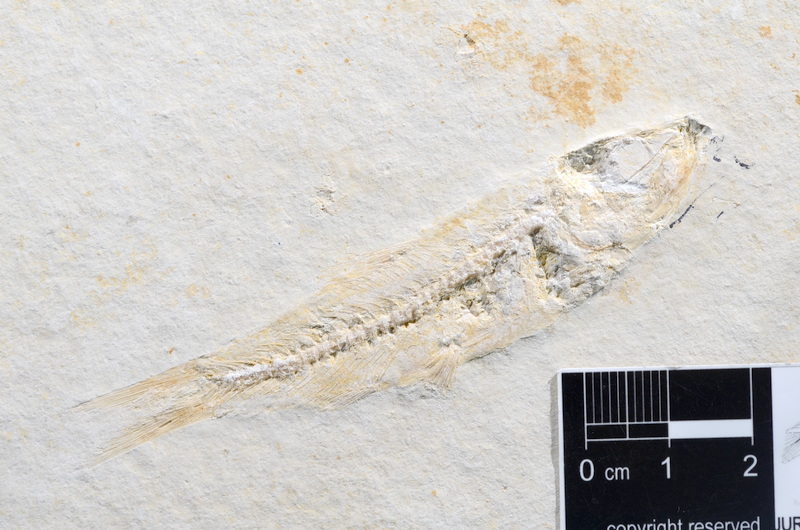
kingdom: Animalia
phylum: Chordata
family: Ascalaboidae
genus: Ascalabos
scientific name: Ascalabos voithii
